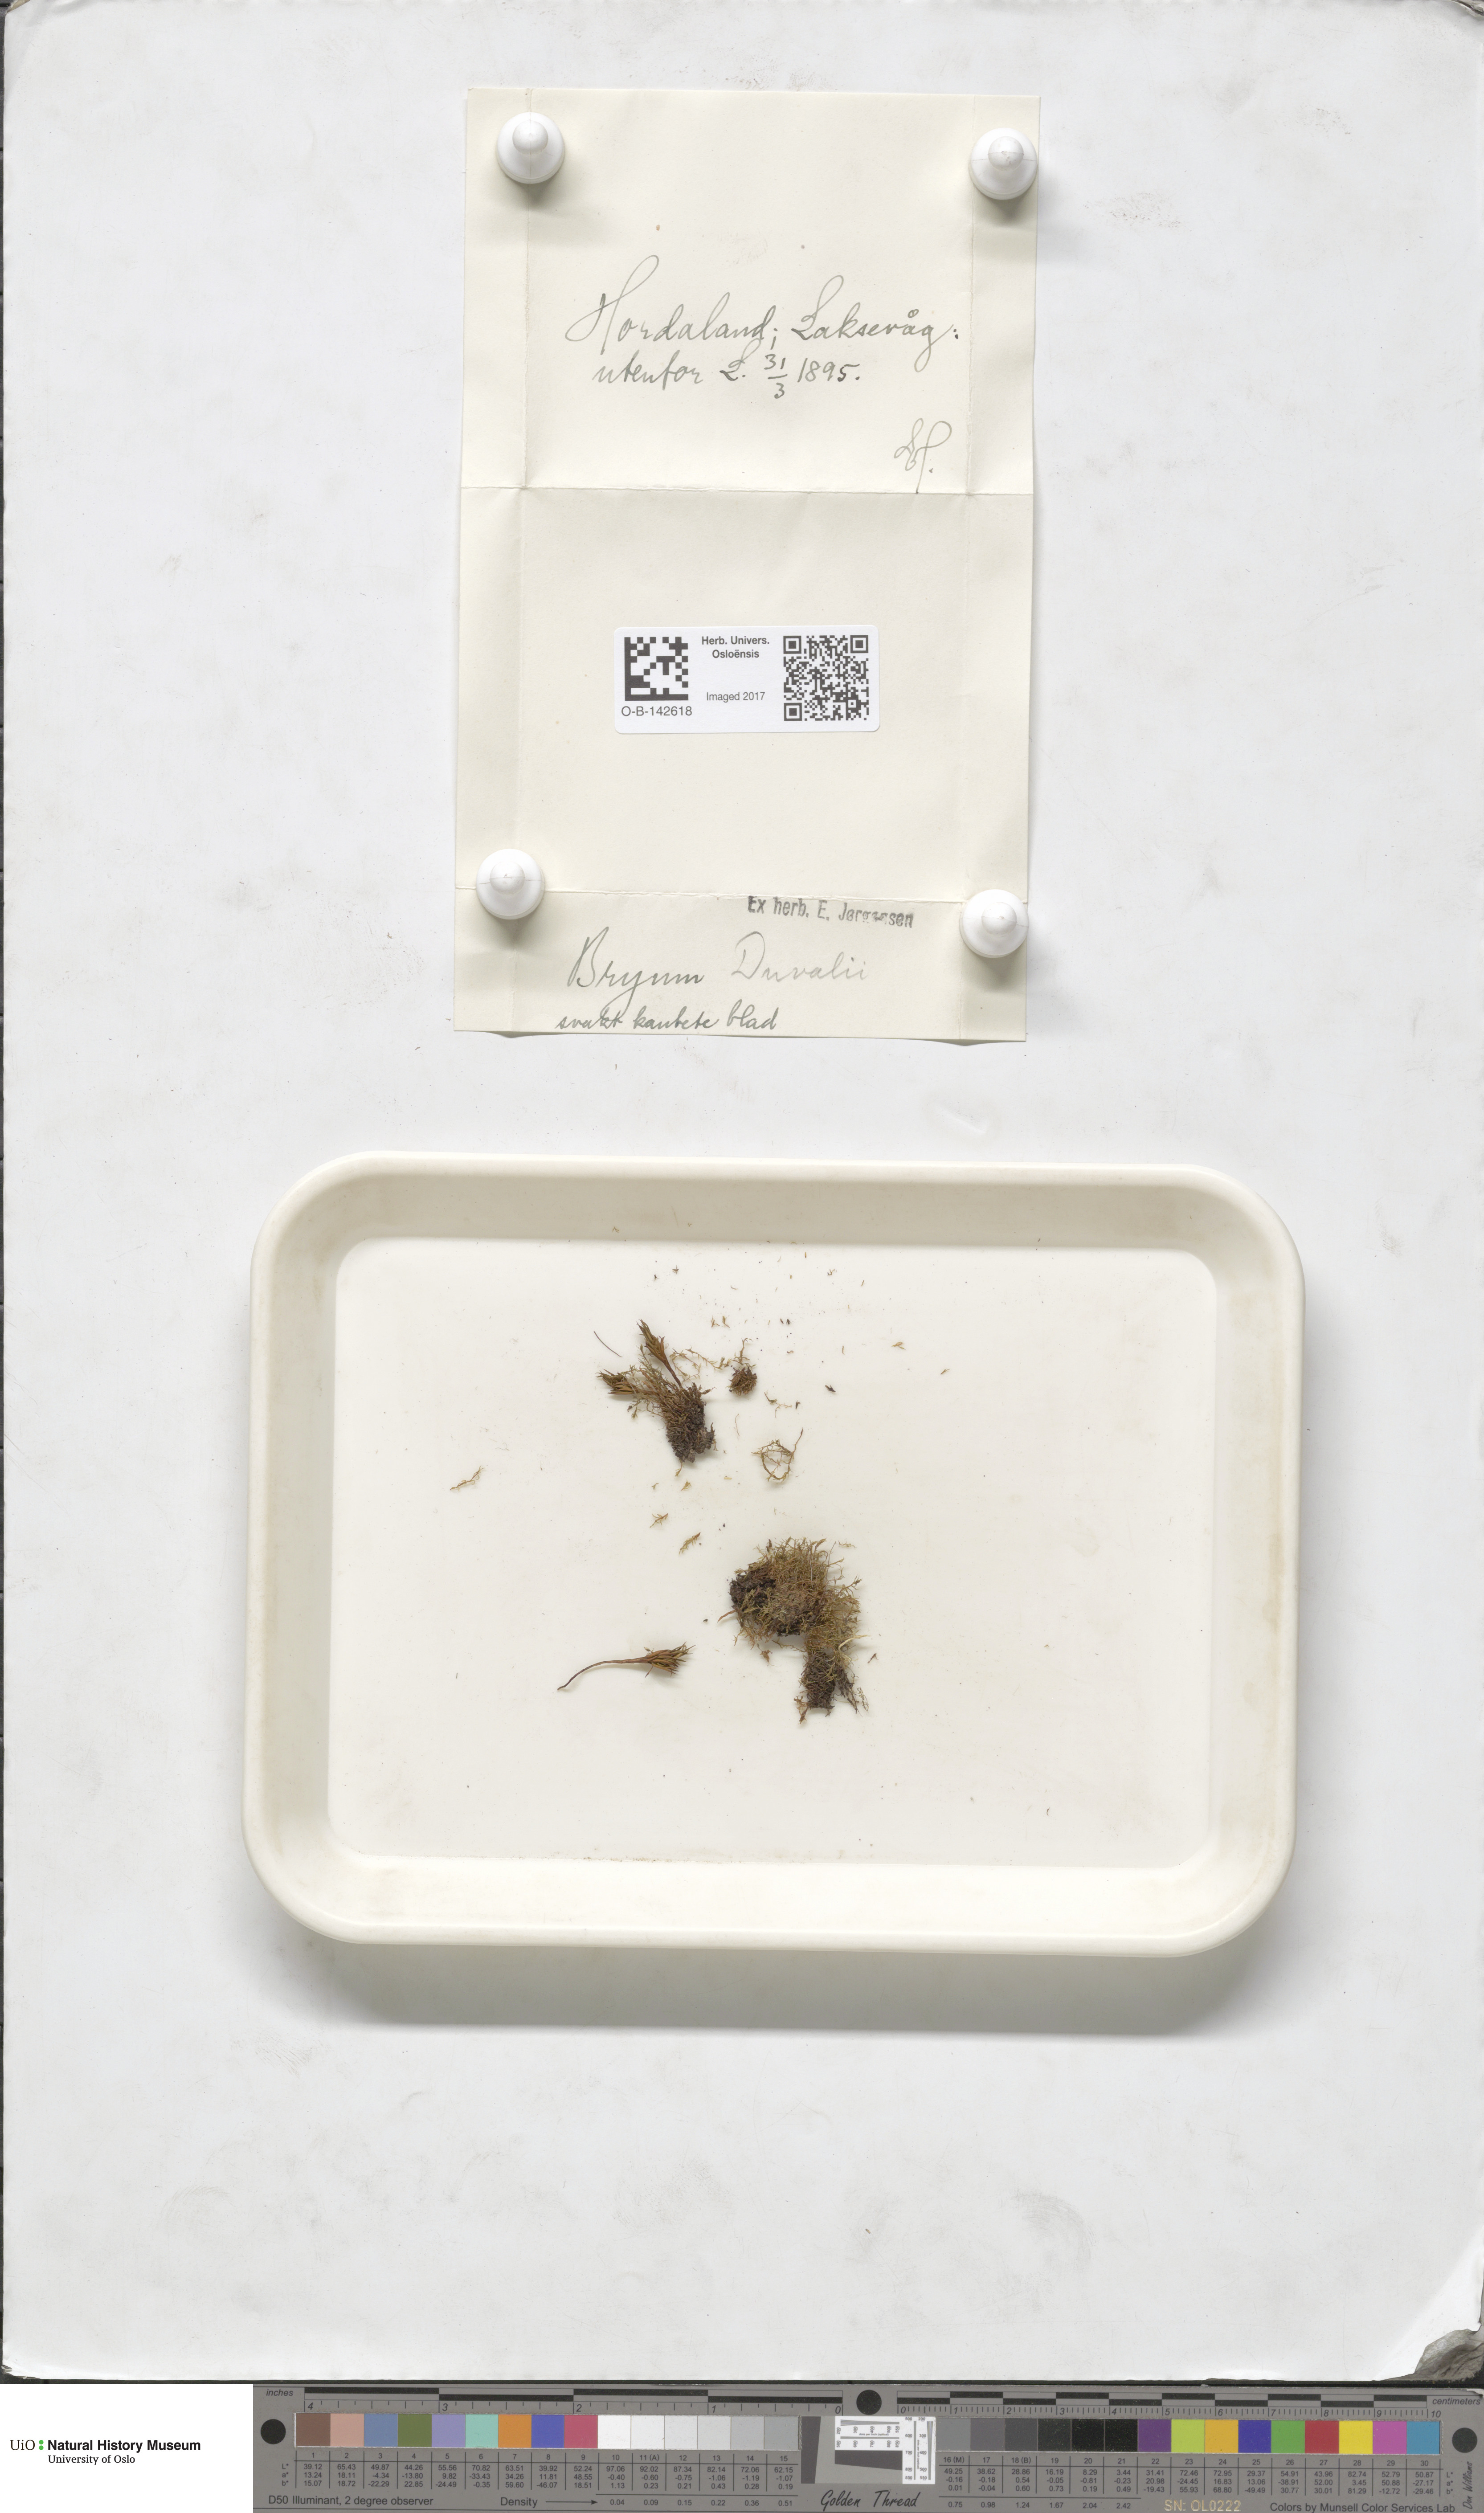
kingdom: Plantae
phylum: Bryophyta
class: Bryopsida
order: Bryales
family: Bryaceae
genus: Ptychostomum
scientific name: Ptychostomum weigelii
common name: Weigel's bryum moss
